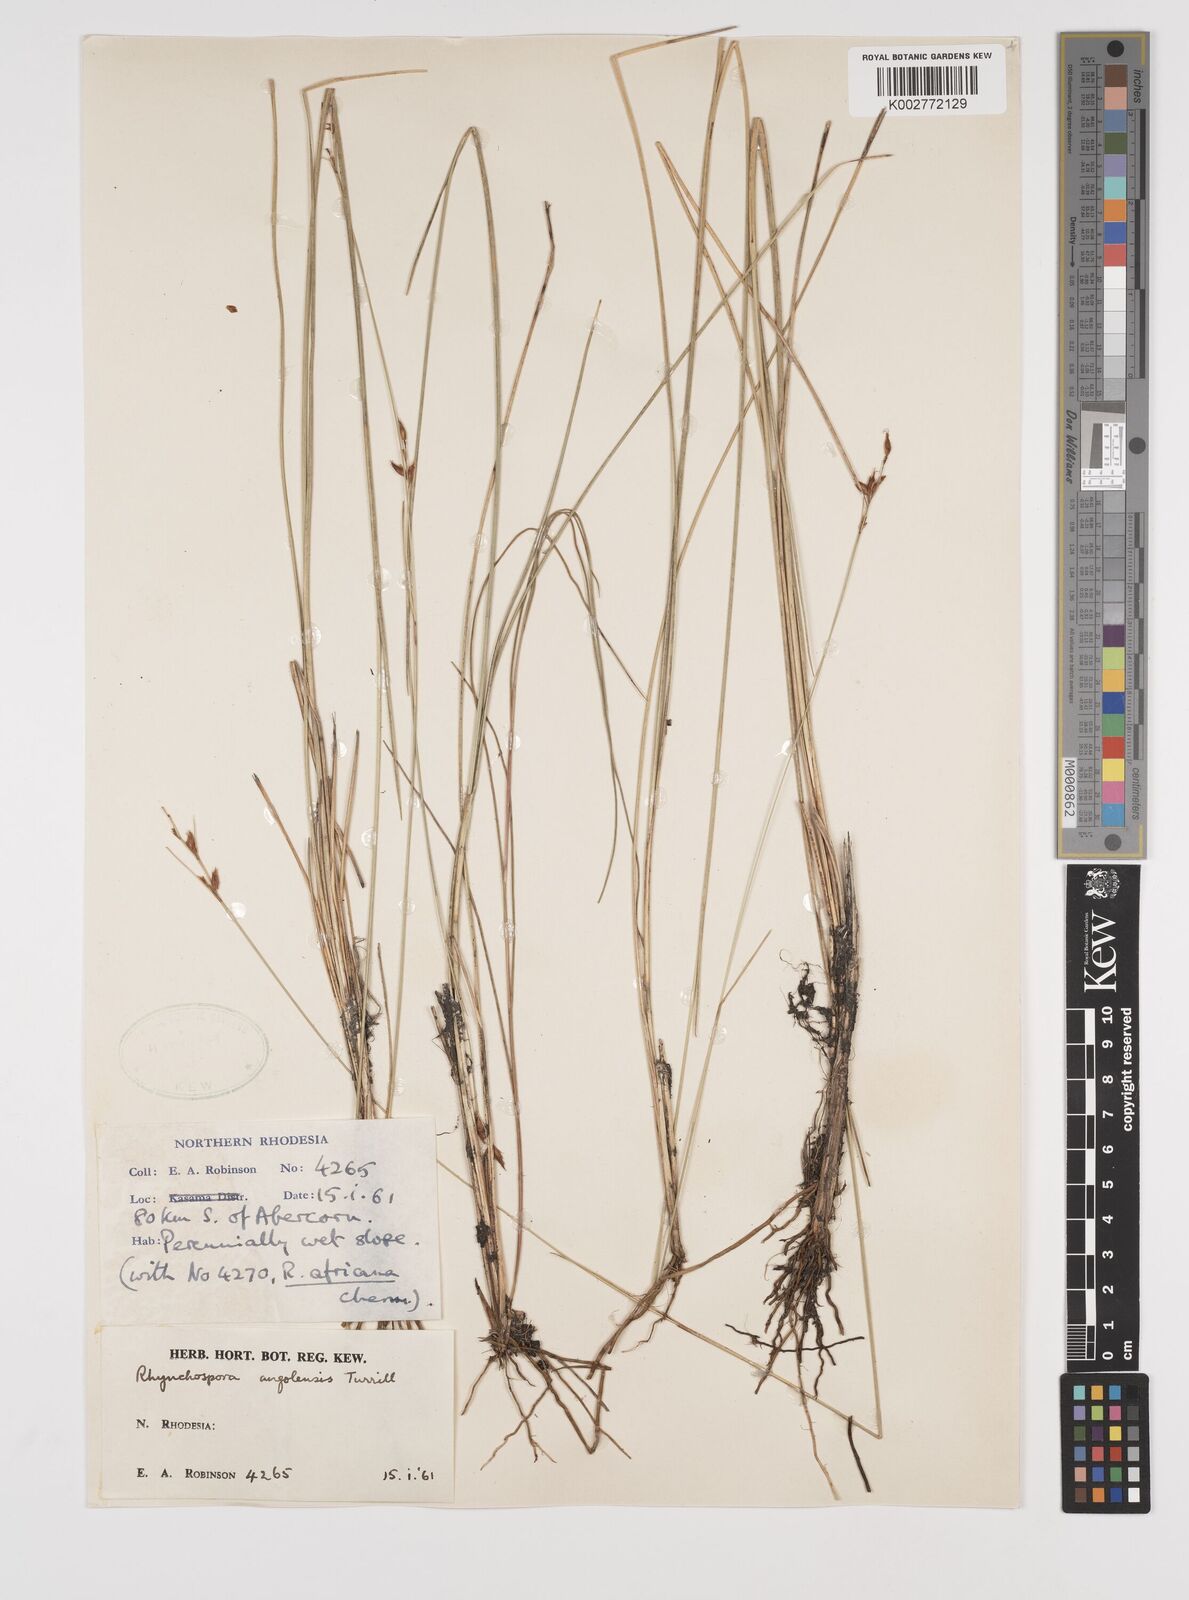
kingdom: Plantae
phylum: Tracheophyta
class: Liliopsida
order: Poales
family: Cyperaceae
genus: Rhynchospora
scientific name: Rhynchospora angolensis
